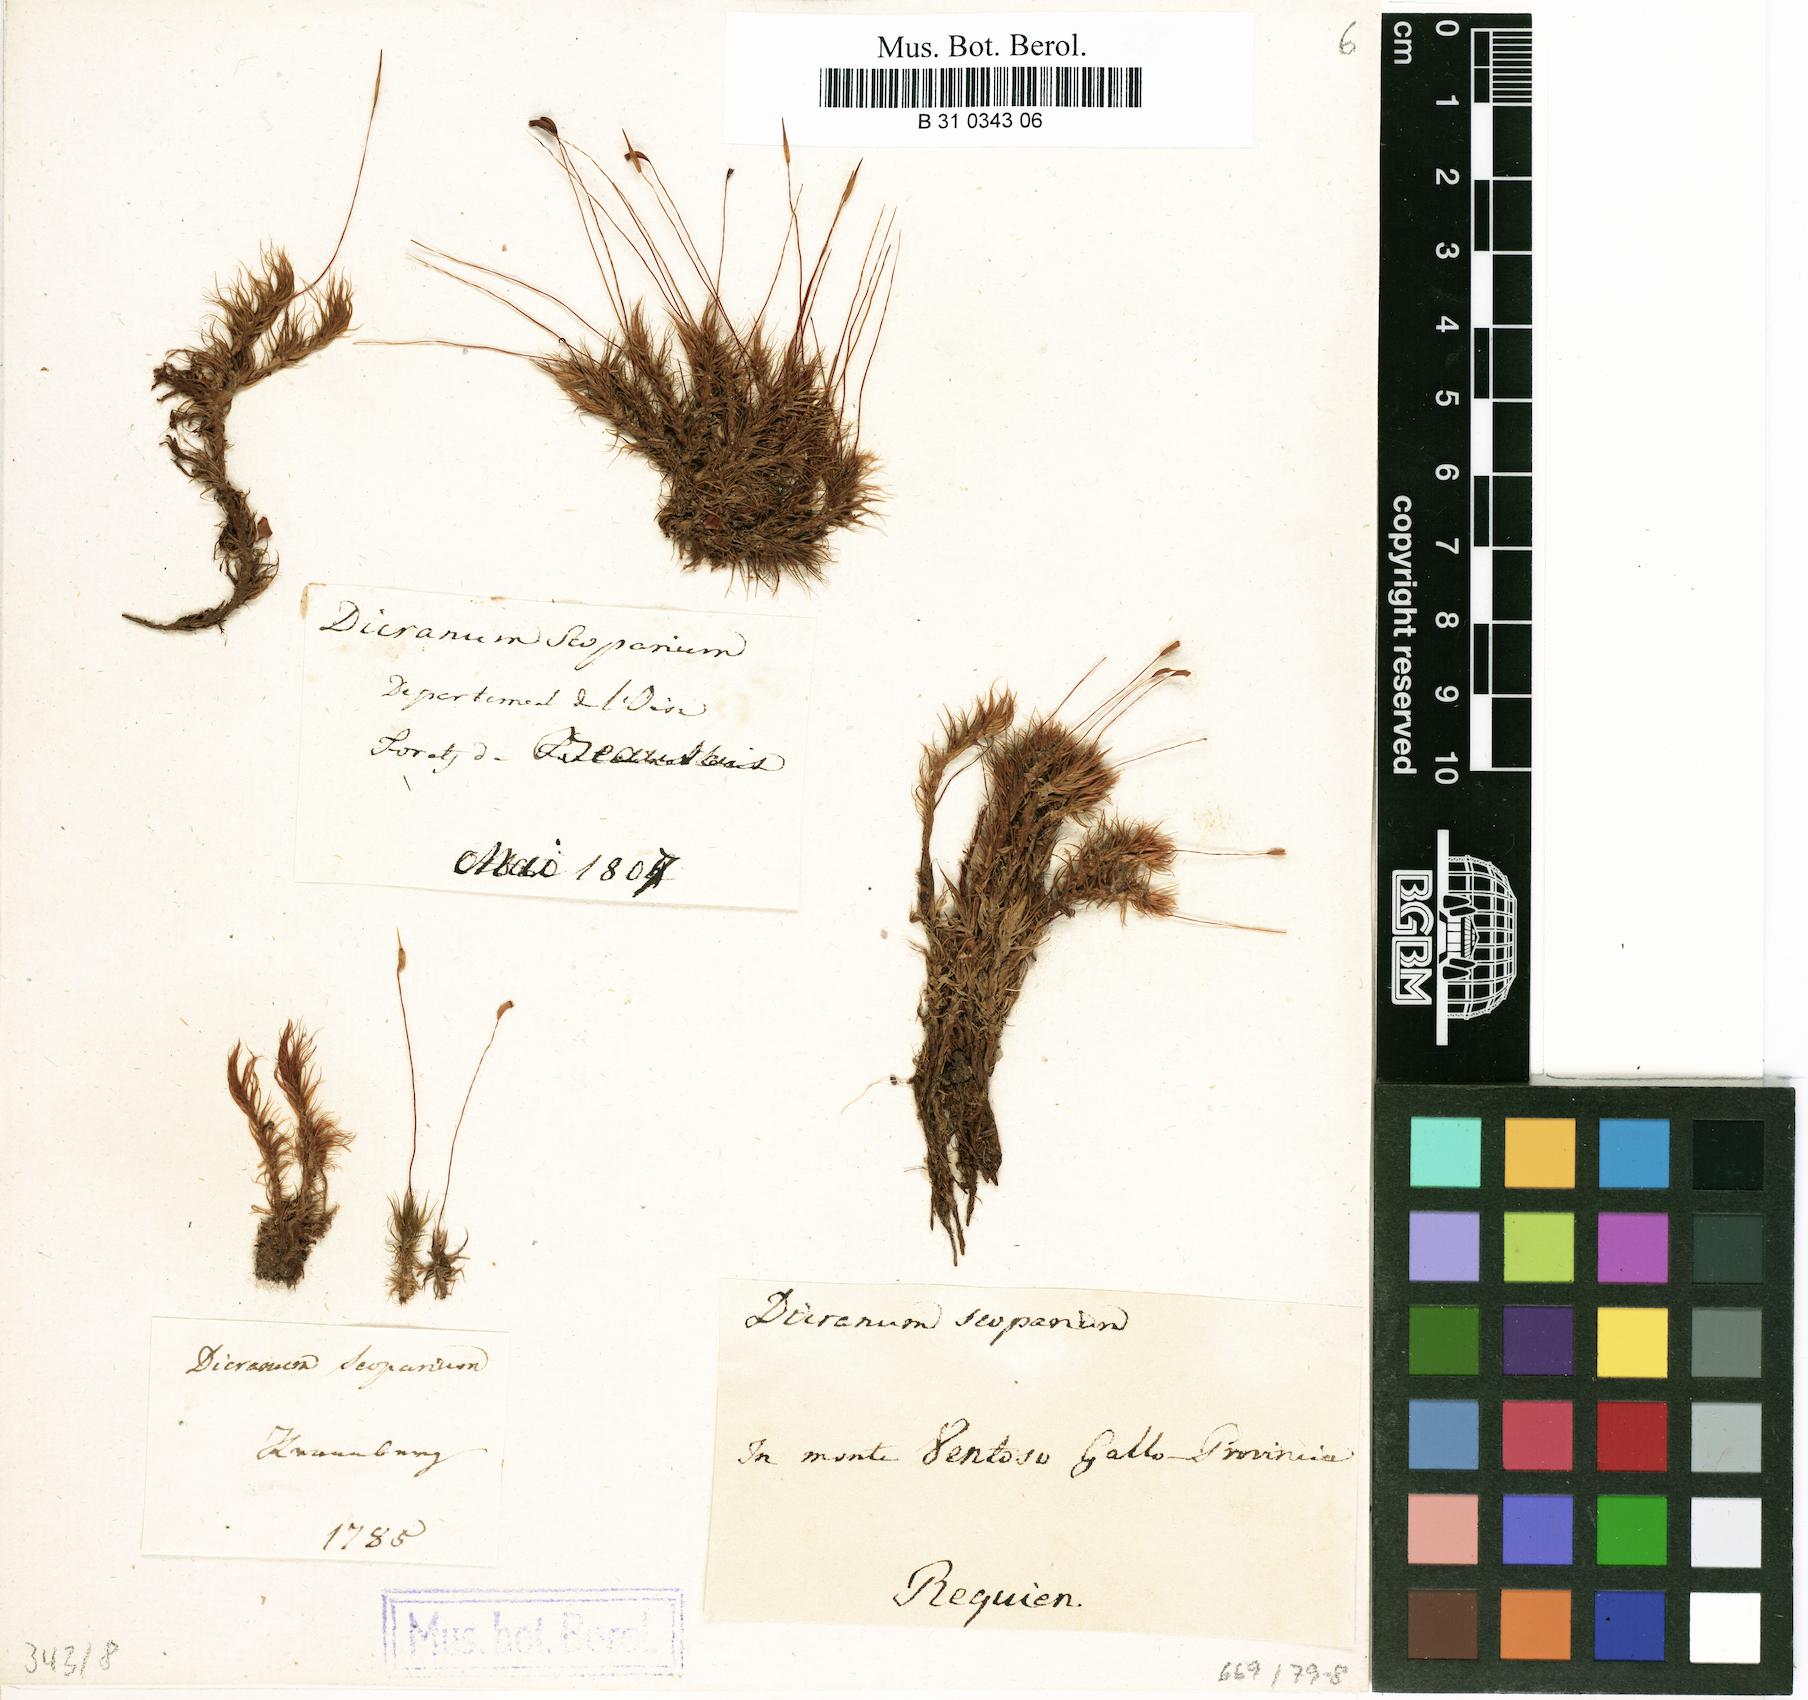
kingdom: Plantae
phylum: Bryophyta
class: Bryopsida
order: Dicranales
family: Dicranaceae
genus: Dicranum
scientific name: Dicranum scoparium
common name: Broom fork-moss
